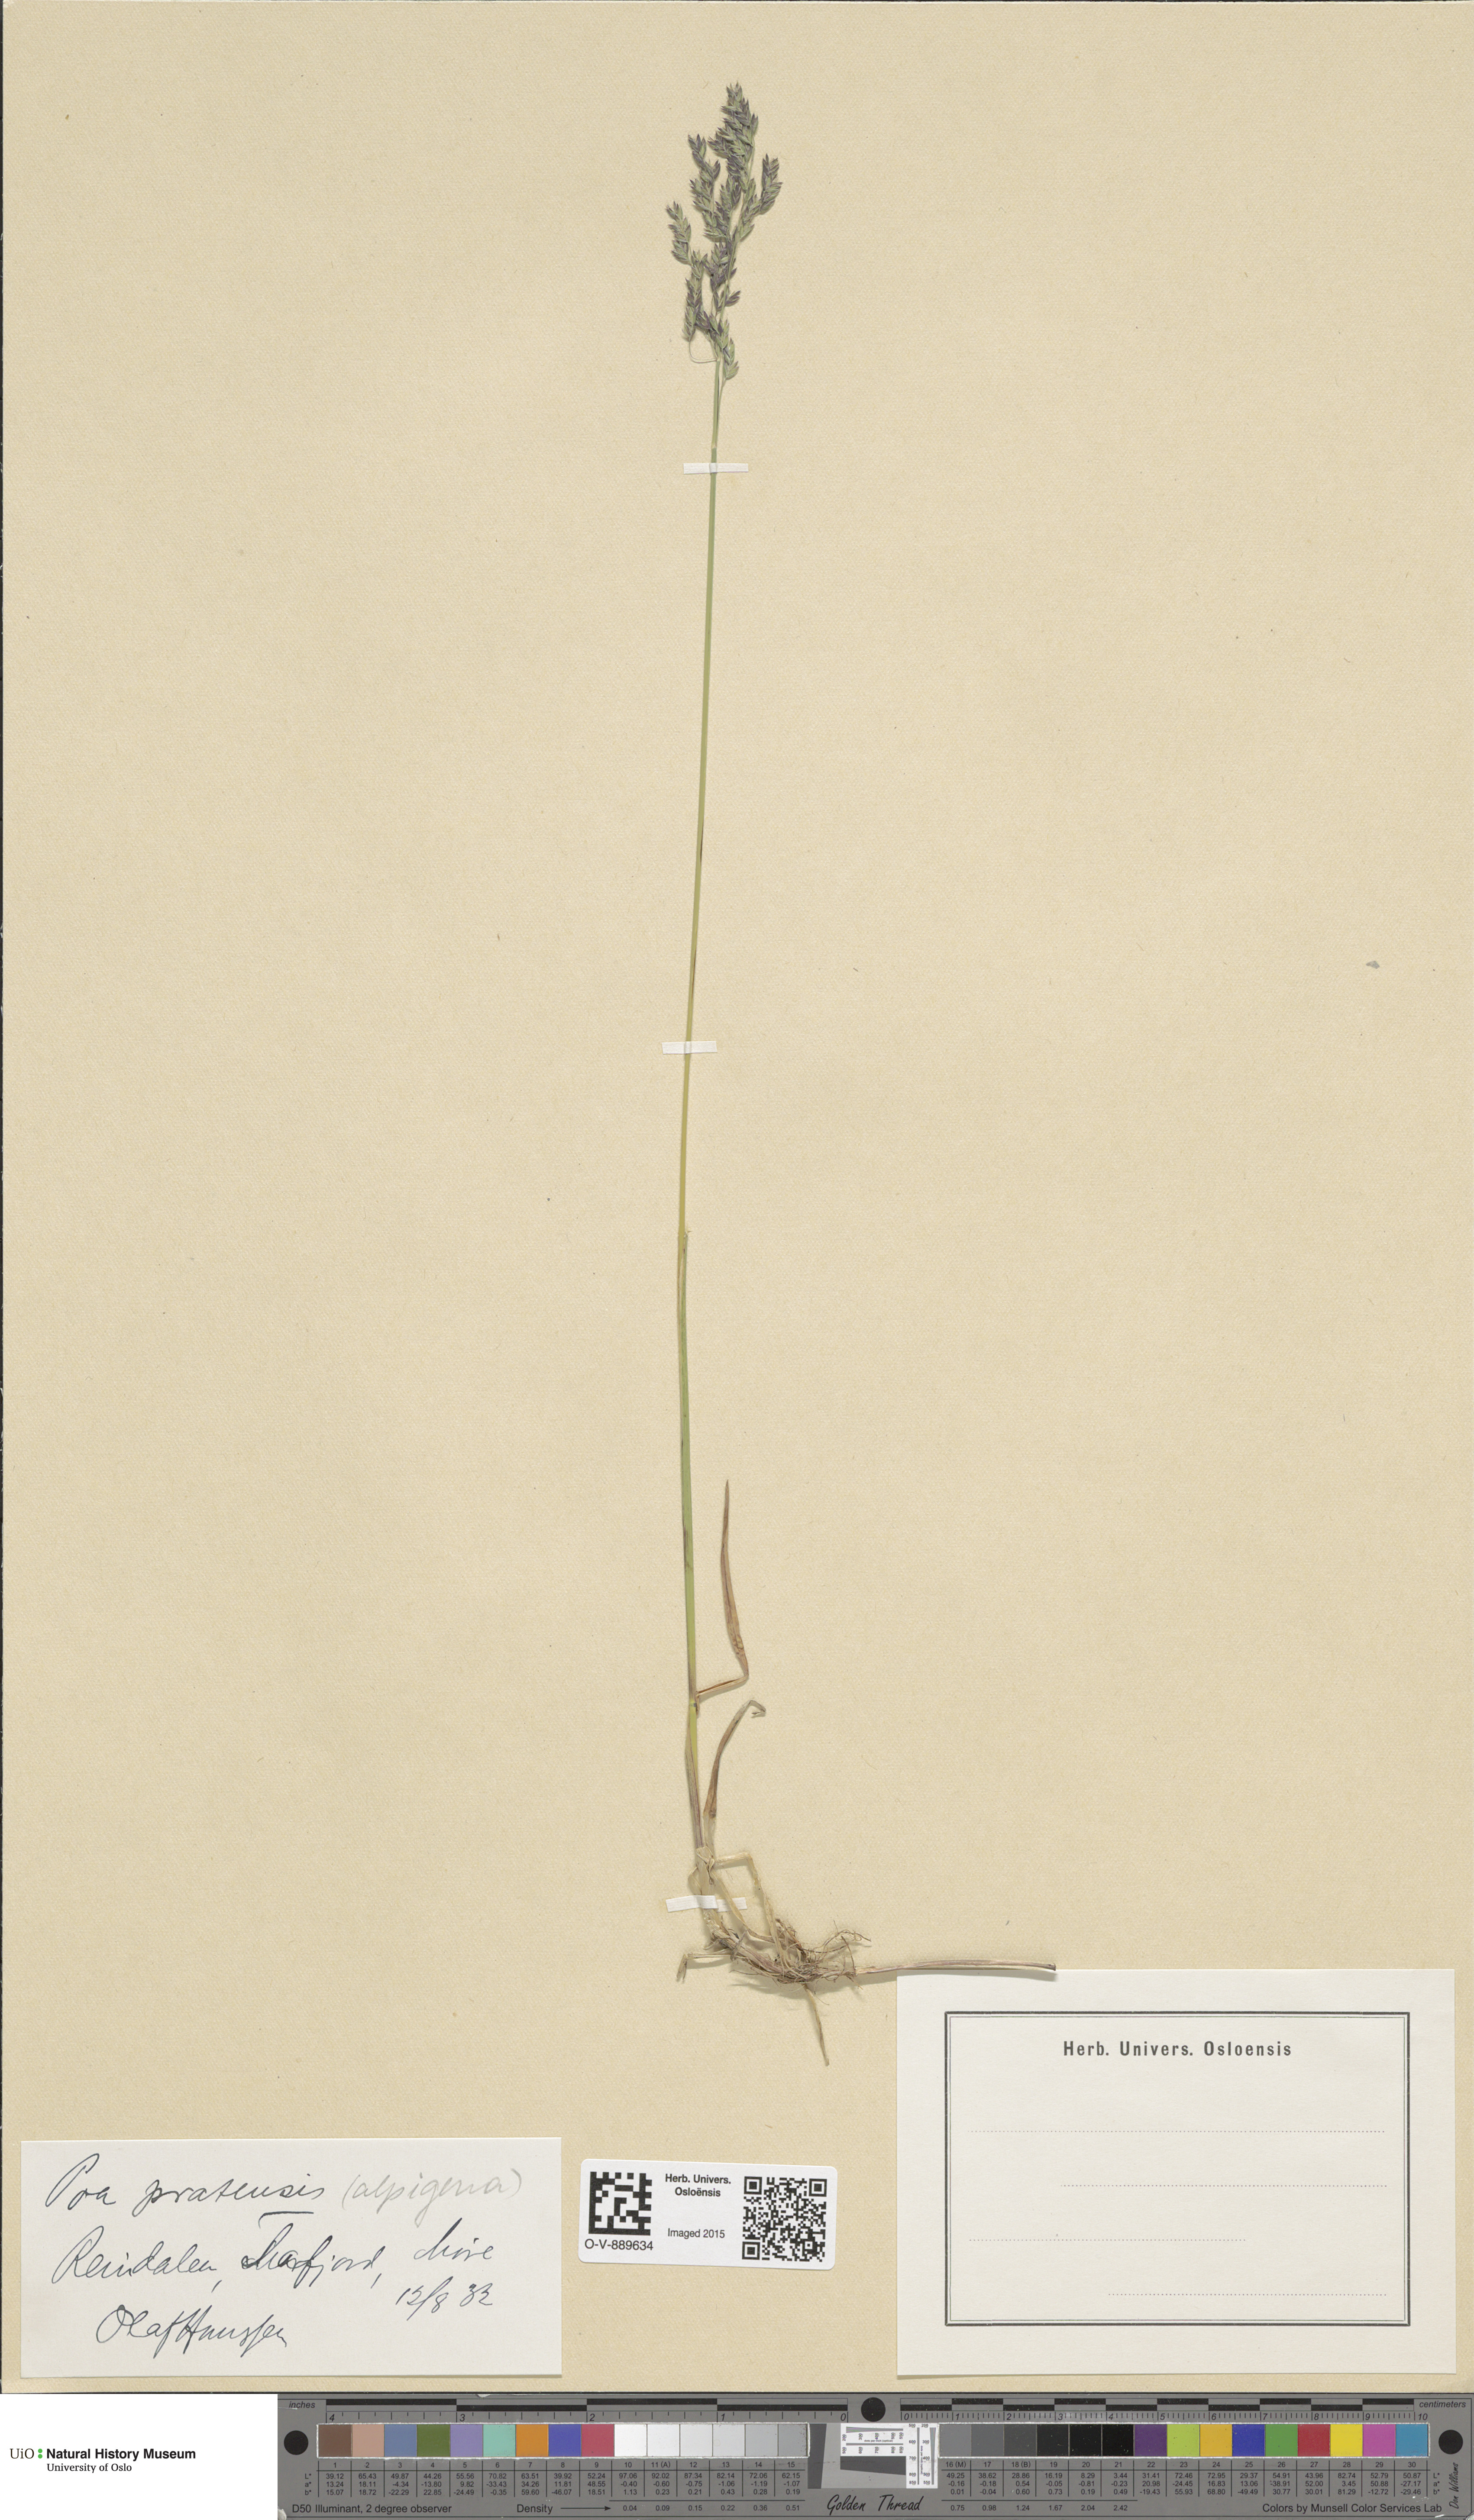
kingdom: Plantae
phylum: Tracheophyta
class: Liliopsida
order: Poales
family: Poaceae
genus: Poa
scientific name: Poa alpigena
